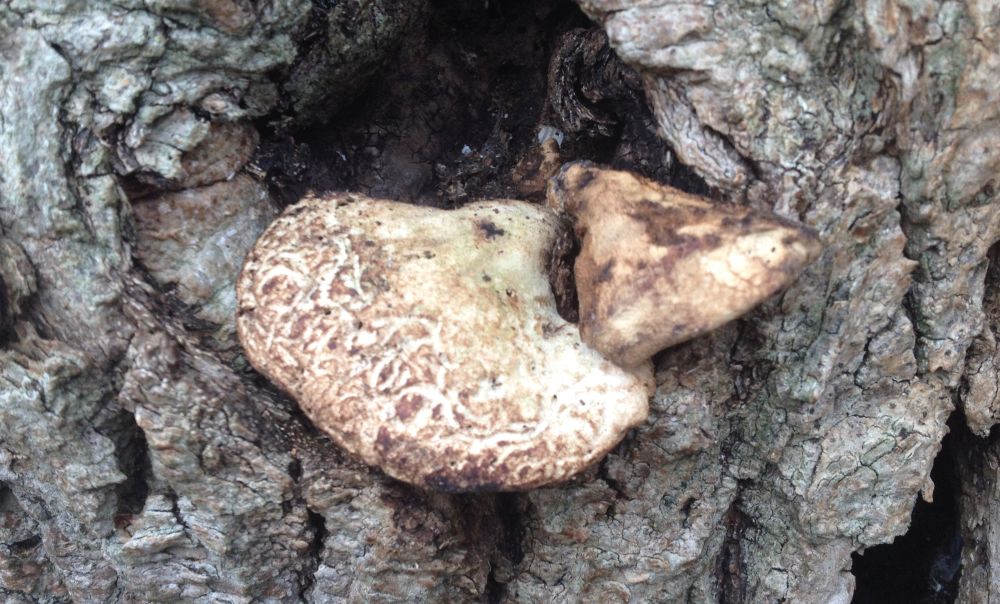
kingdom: Fungi
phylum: Basidiomycota
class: Agaricomycetes
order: Polyporales
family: Polyporaceae
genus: Cerioporus
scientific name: Cerioporus squamosus
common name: skællet stilkporesvamp
